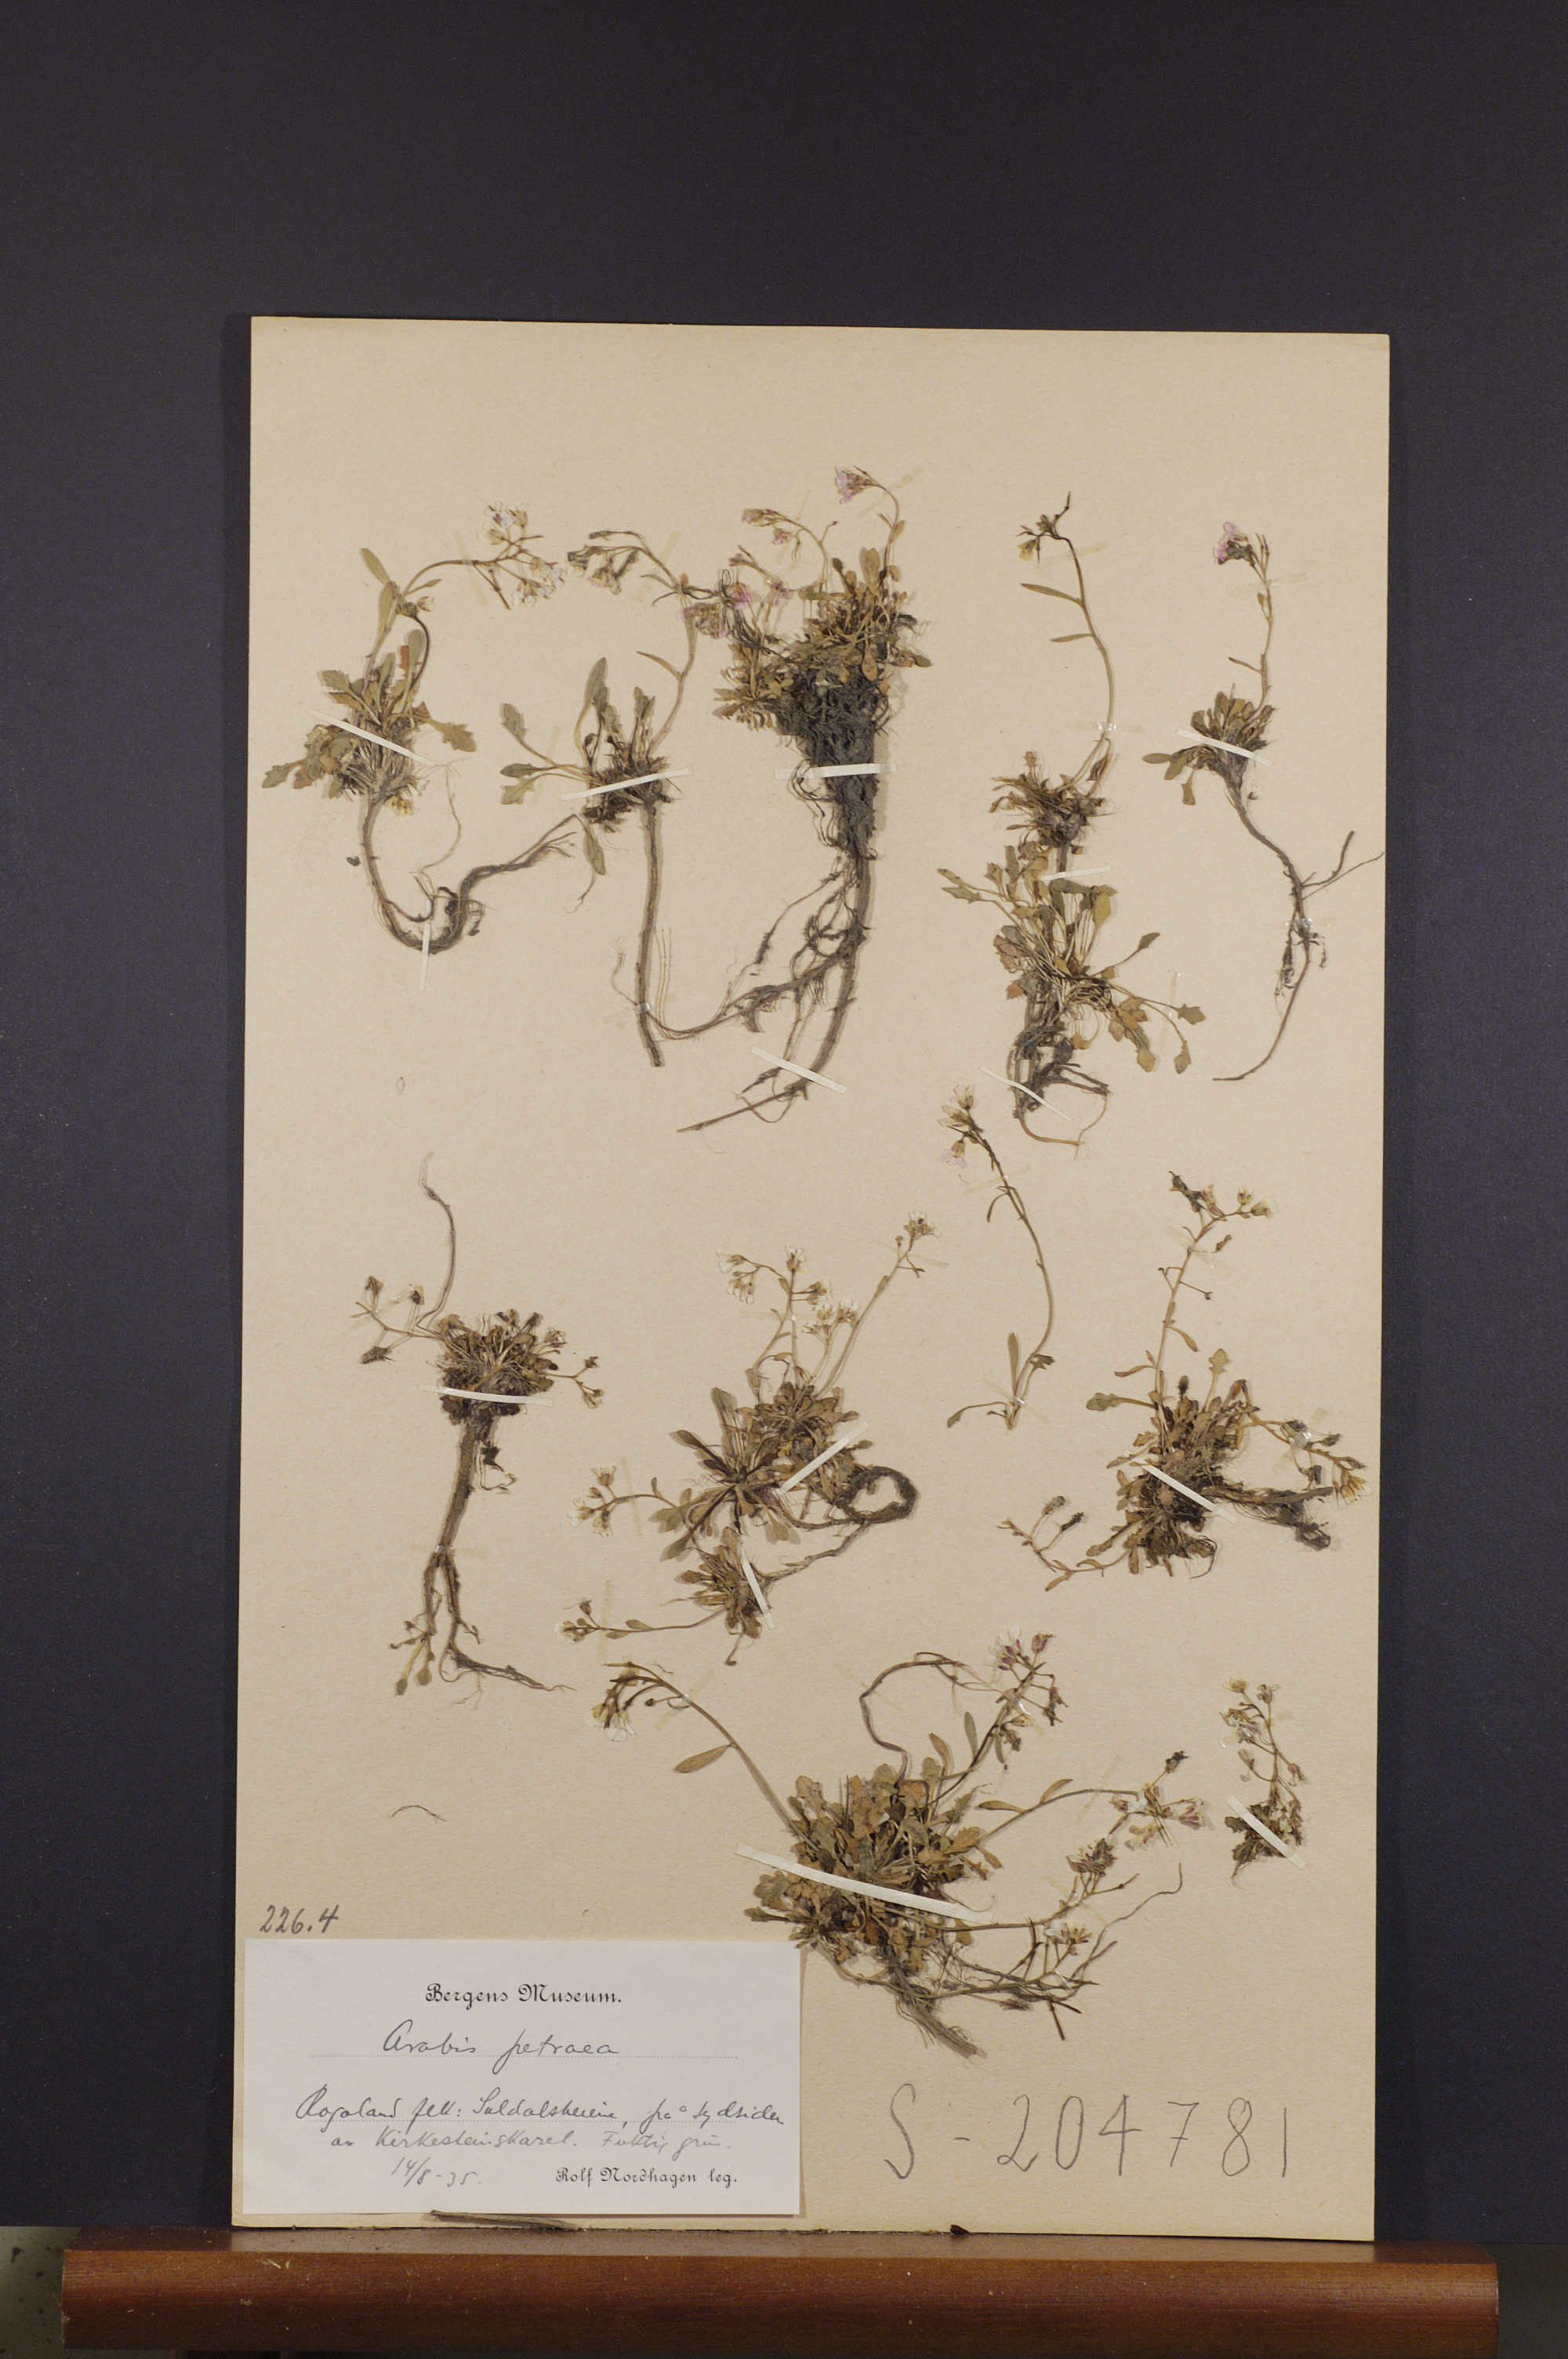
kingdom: Plantae
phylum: Tracheophyta
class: Magnoliopsida
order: Brassicales
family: Brassicaceae
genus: Arabidopsis
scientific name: Arabidopsis petraea
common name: Northern rock-cress
